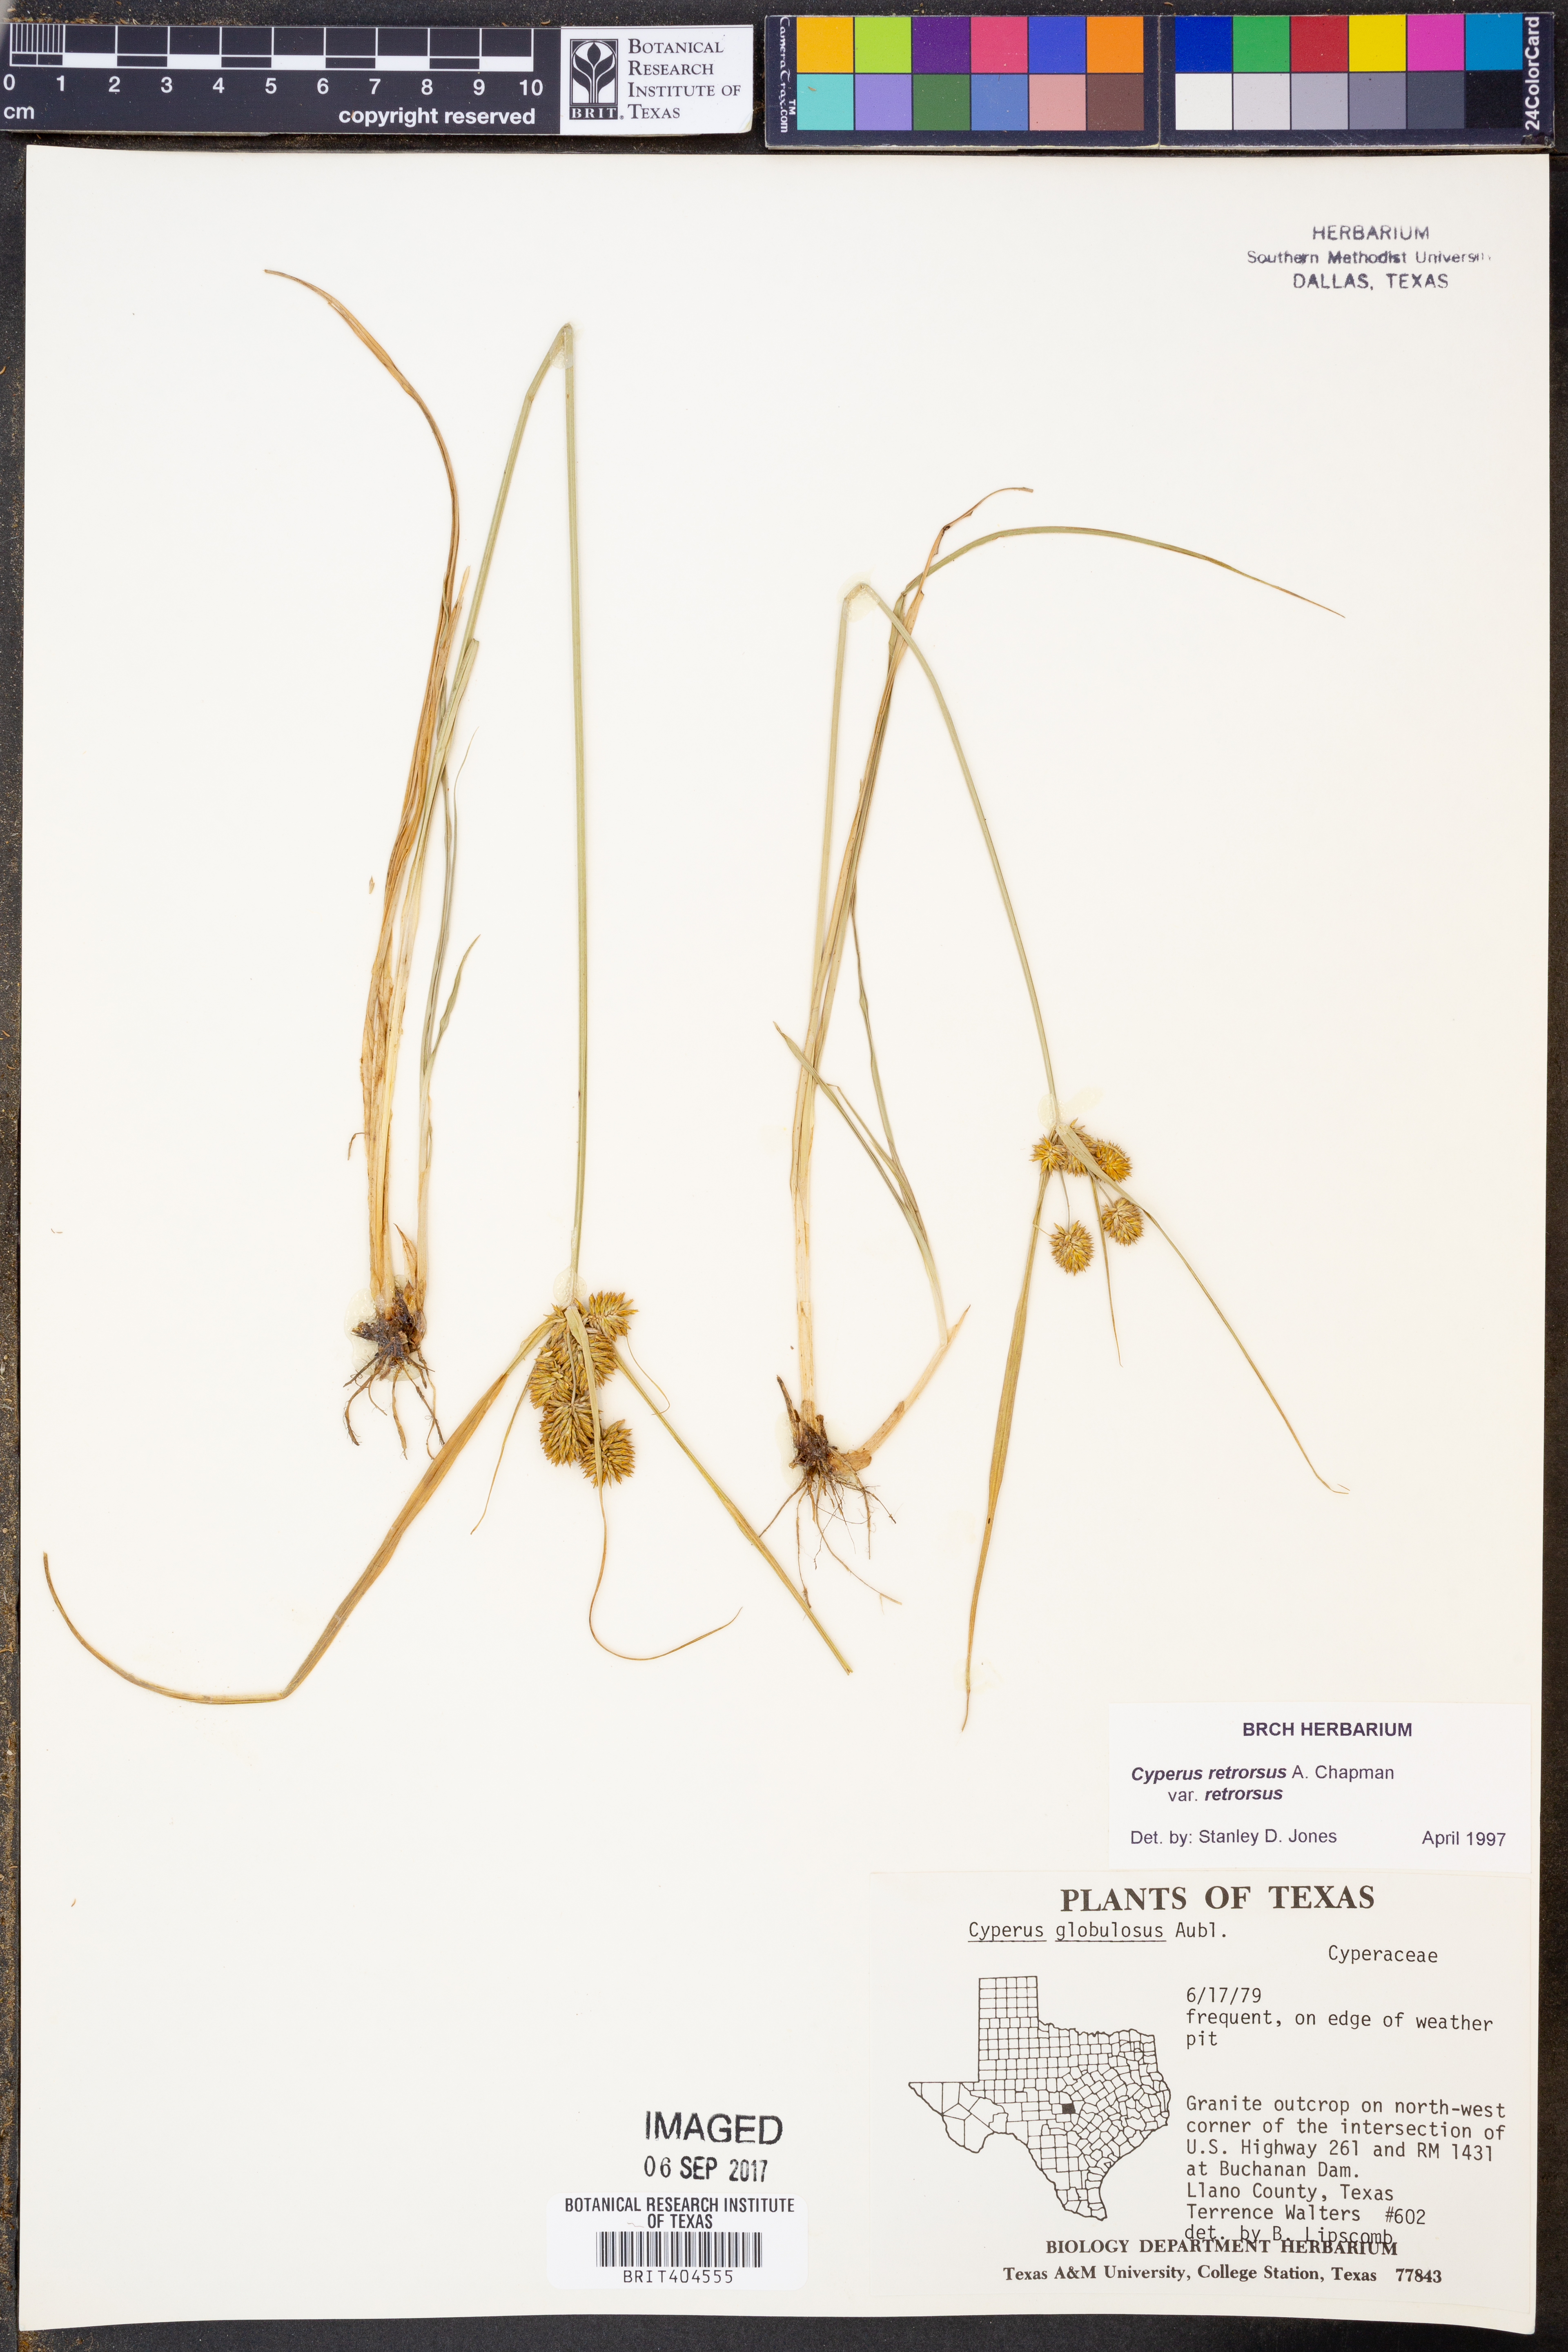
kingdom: Plantae
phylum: Tracheophyta
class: Liliopsida
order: Poales
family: Cyperaceae
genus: Cyperus
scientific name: Cyperus retrorsus
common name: Pinebarren flat sedge
